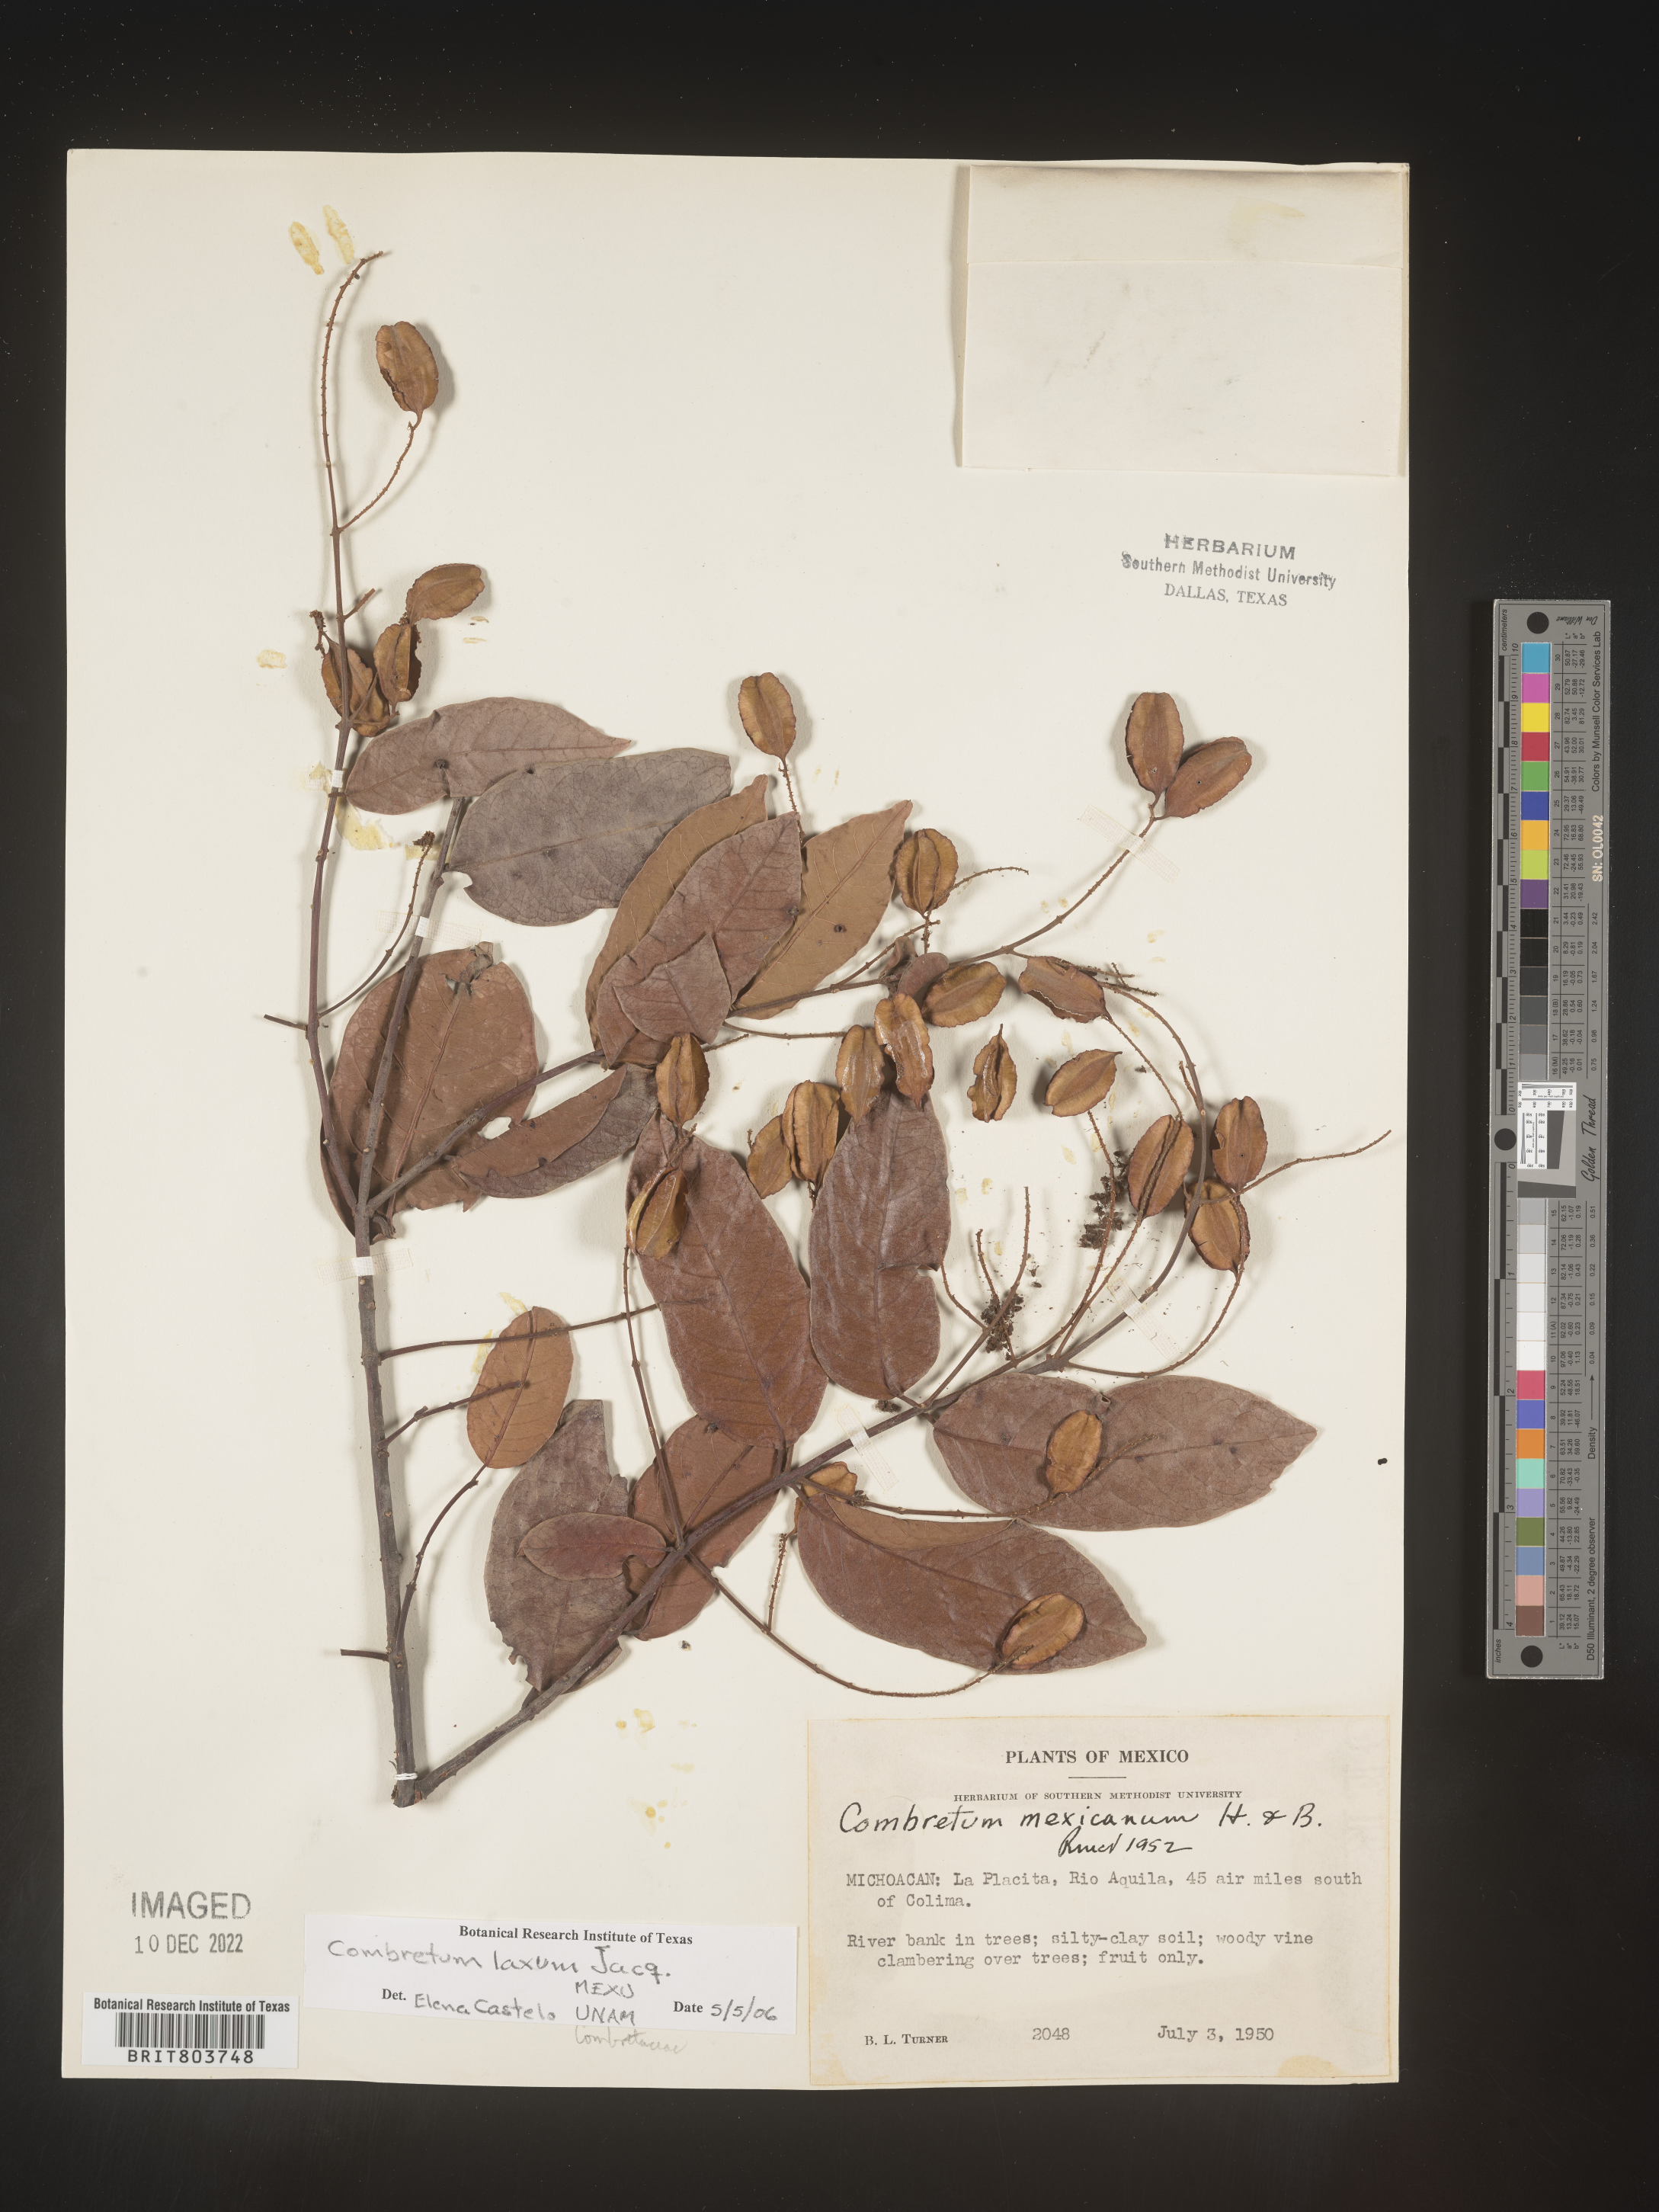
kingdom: Plantae
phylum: Tracheophyta
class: Magnoliopsida
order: Myrtales
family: Combretaceae
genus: Combretum
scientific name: Combretum
